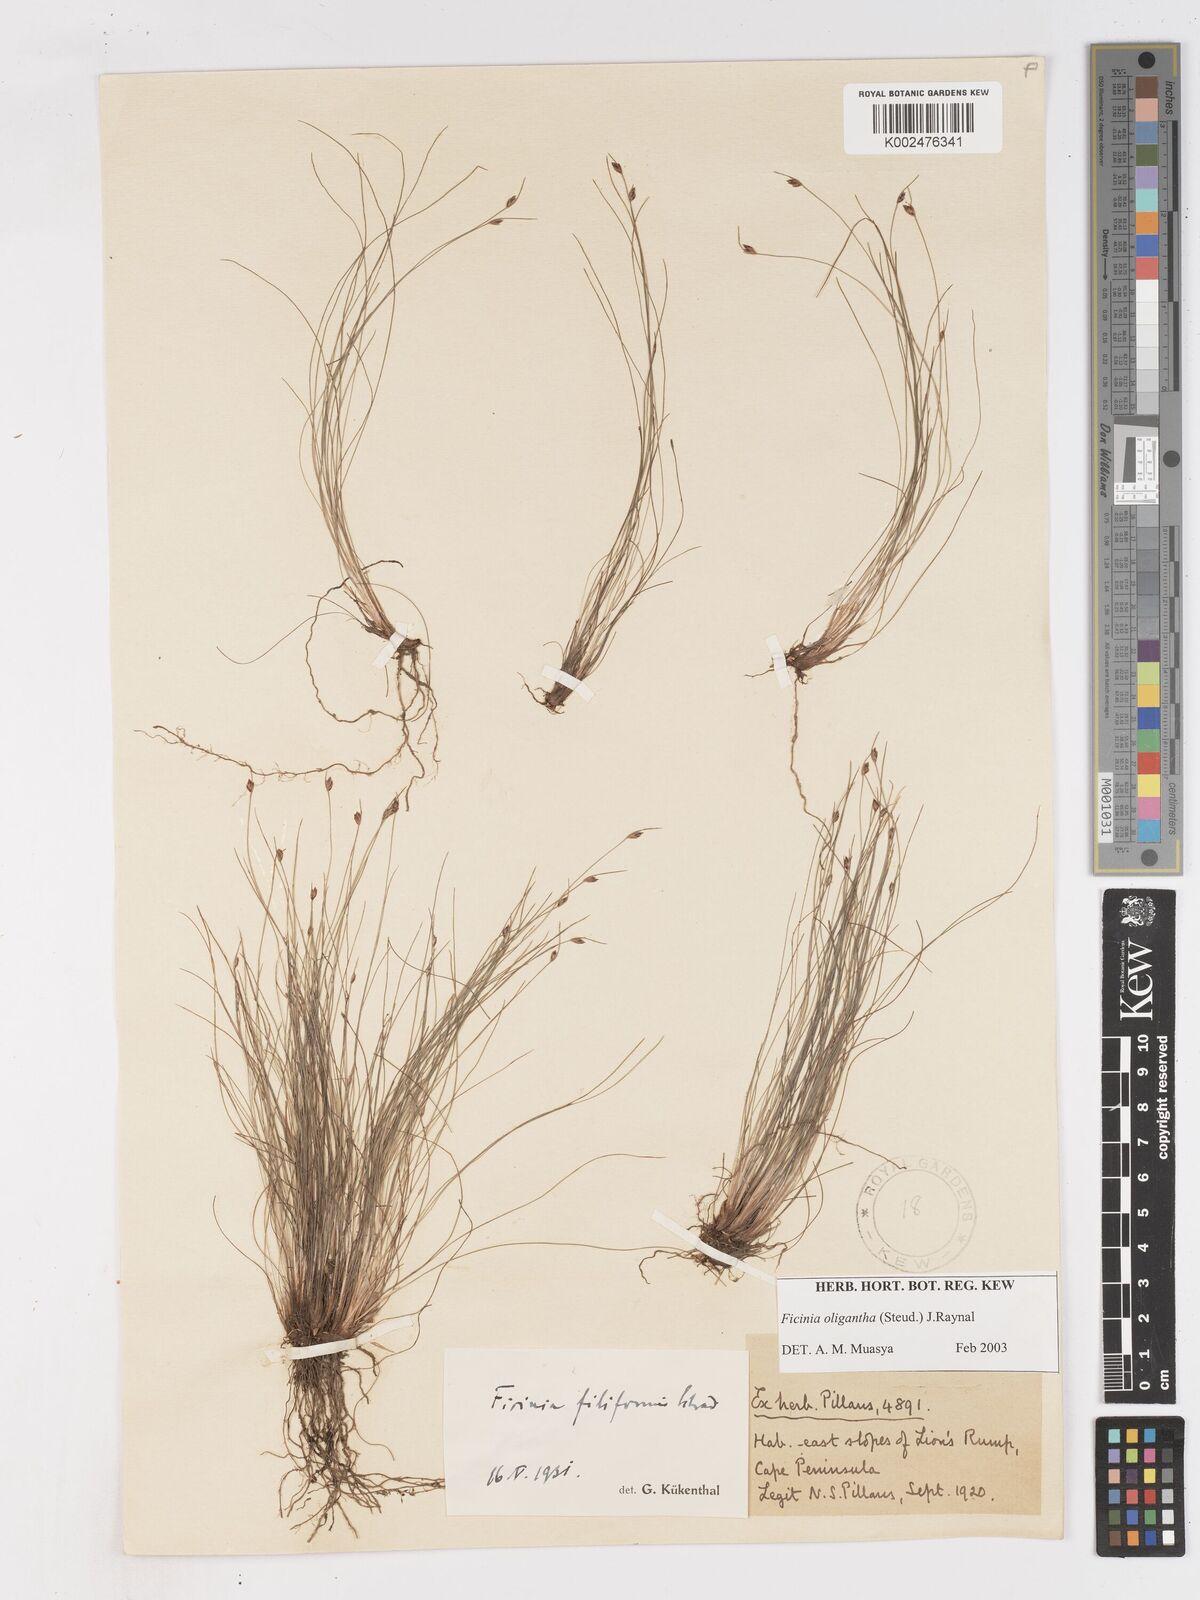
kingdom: Plantae
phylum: Tracheophyta
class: Liliopsida
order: Poales
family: Cyperaceae
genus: Ficinia
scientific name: Ficinia oligantha
